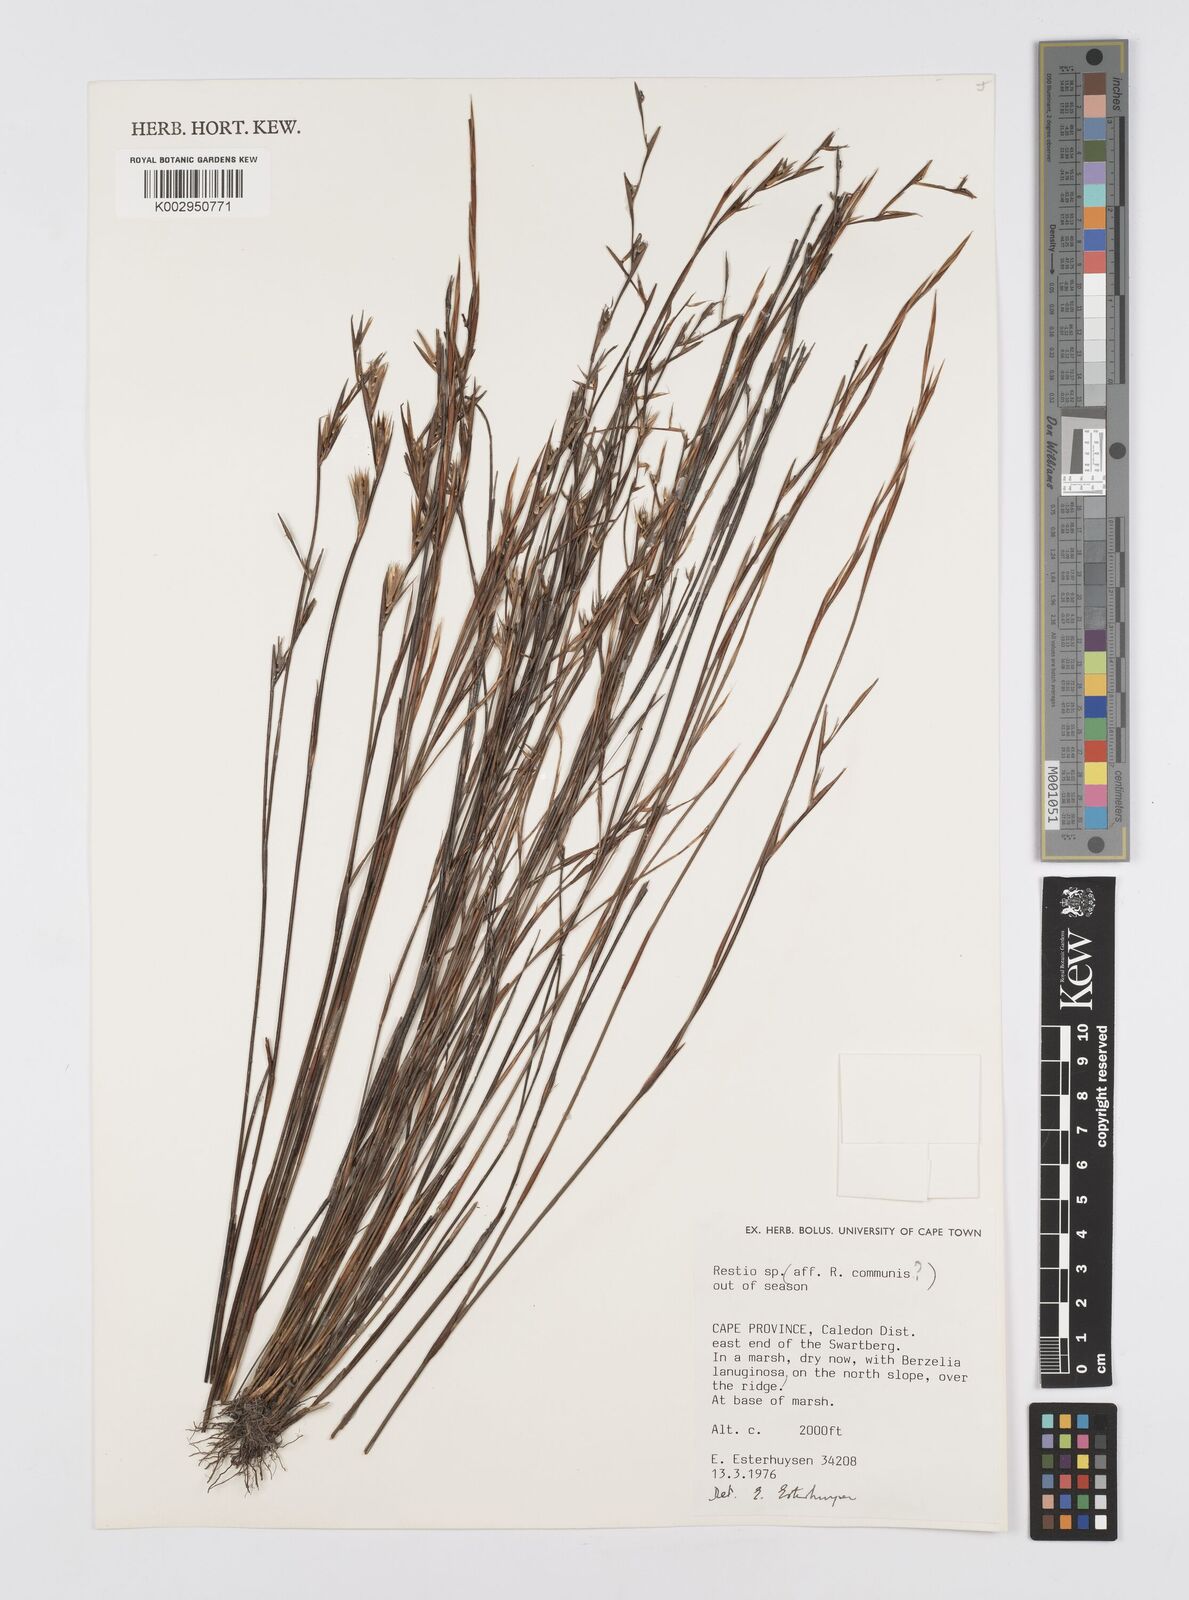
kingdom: Plantae
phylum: Tracheophyta
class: Liliopsida
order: Poales
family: Restionaceae
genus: Restio
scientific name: Restio communis
